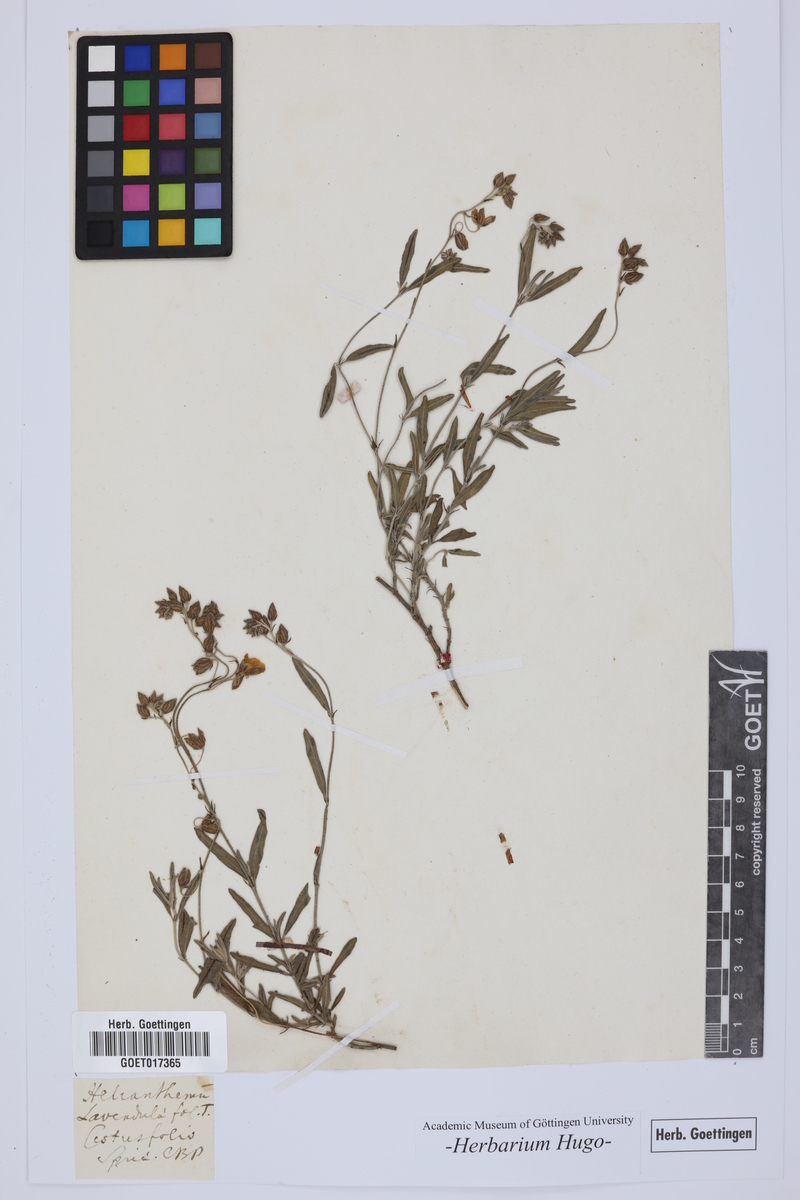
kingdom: Plantae
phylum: Tracheophyta
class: Magnoliopsida
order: Malvales
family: Cistaceae
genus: Helianthemum
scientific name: Helianthemum
